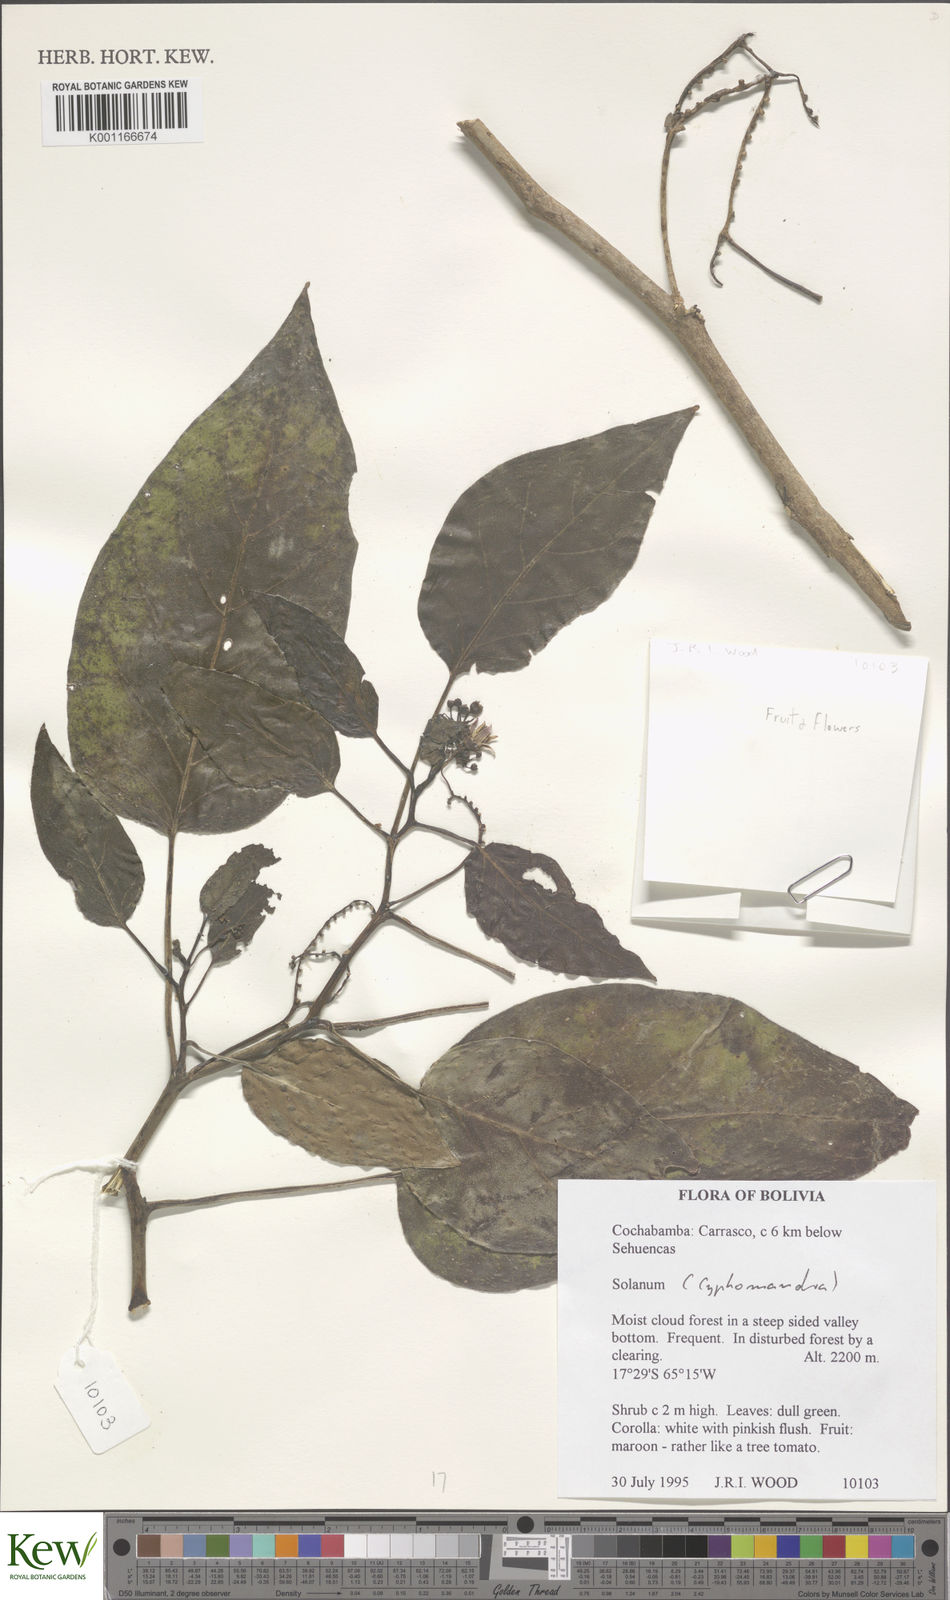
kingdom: Plantae
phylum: Tracheophyta
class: Magnoliopsida
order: Solanales
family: Solanaceae
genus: Solanum
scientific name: Solanum
